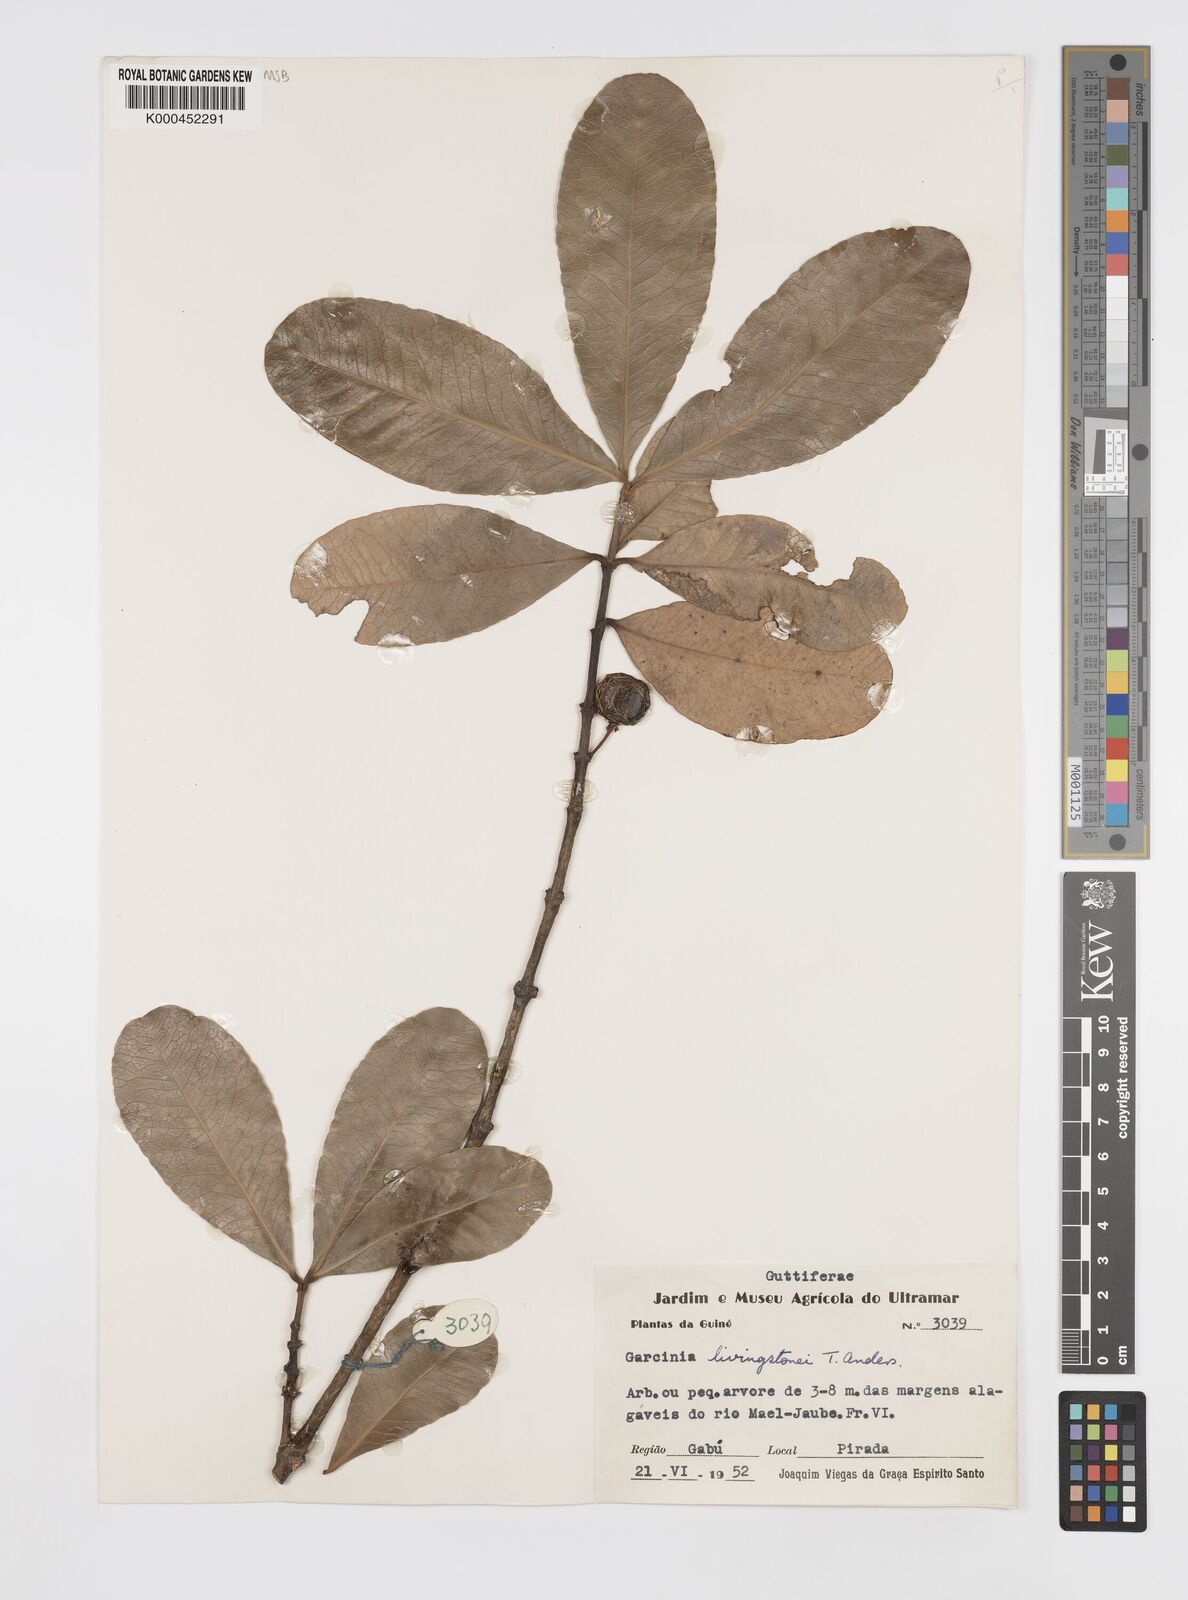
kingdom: Plantae
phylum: Tracheophyta
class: Magnoliopsida
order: Malpighiales
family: Clusiaceae
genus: Garcinia
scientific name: Garcinia livingstonei
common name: African mangosteen
